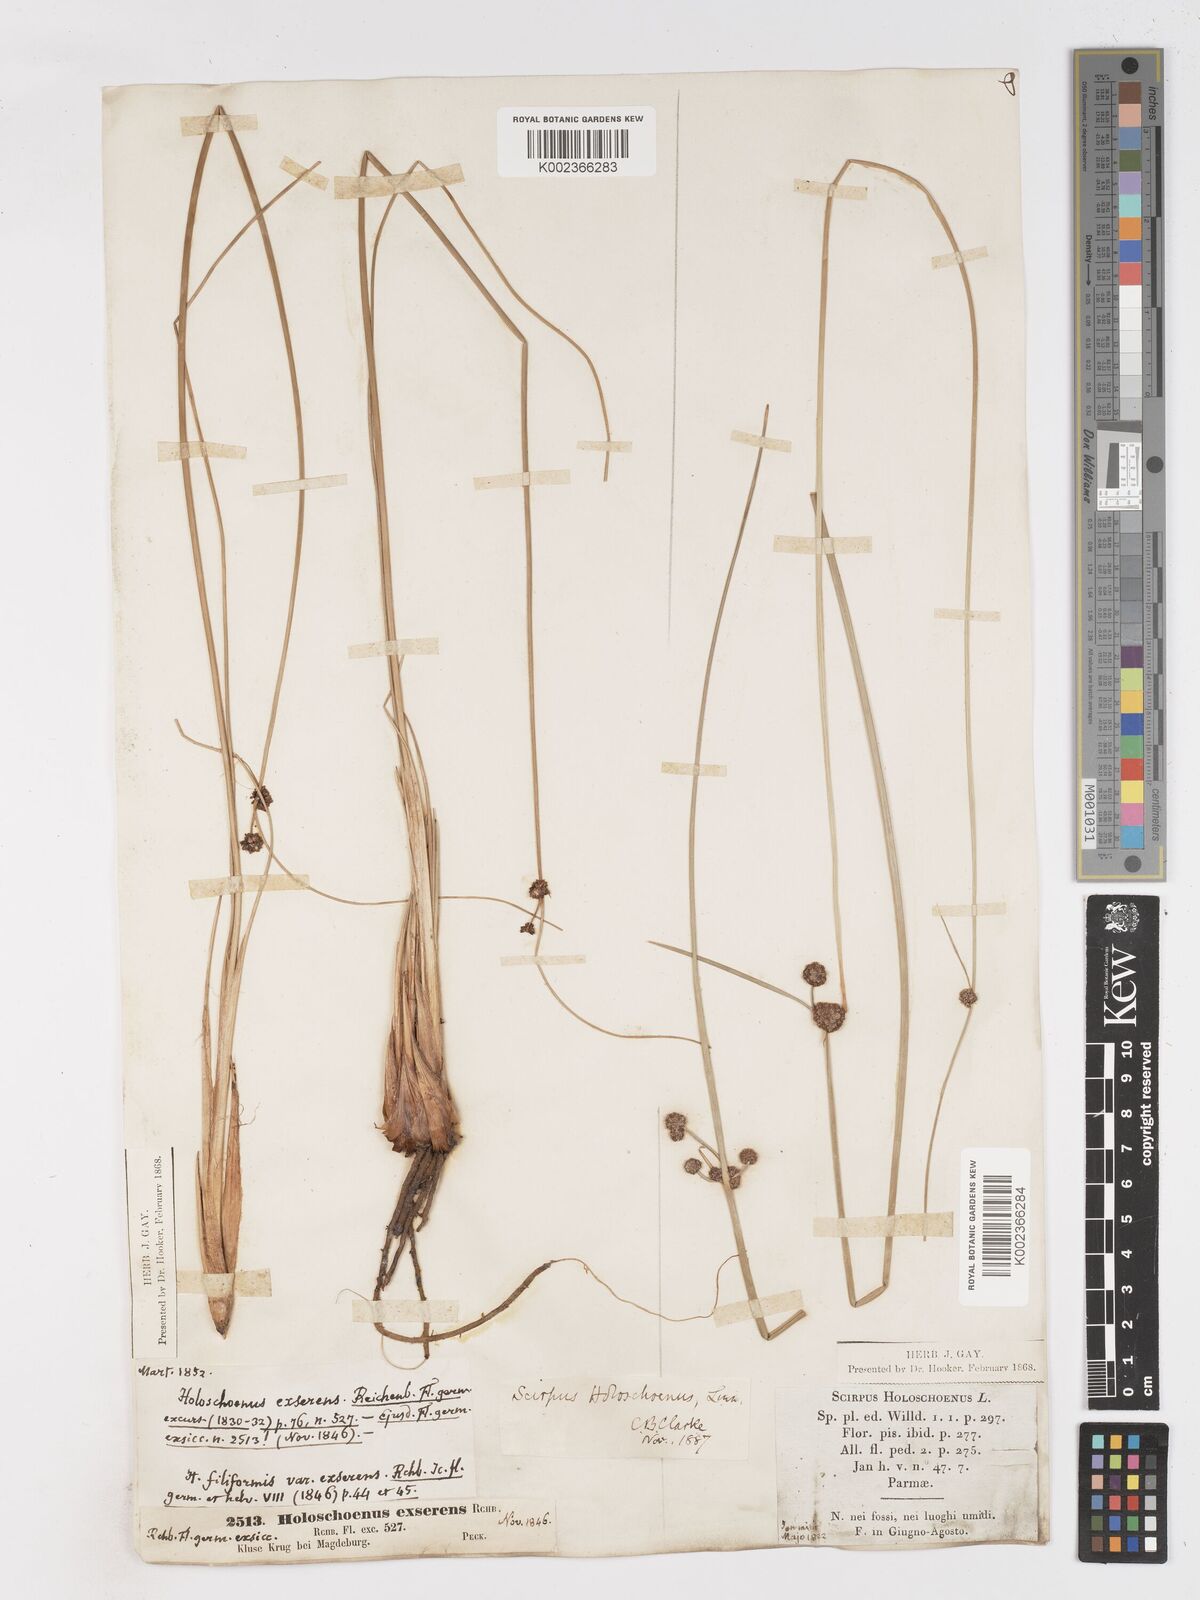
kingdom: Plantae
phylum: Tracheophyta
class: Liliopsida
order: Poales
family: Cyperaceae
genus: Scirpoides
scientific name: Scirpoides holoschoenus
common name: Round-headed club-rush
